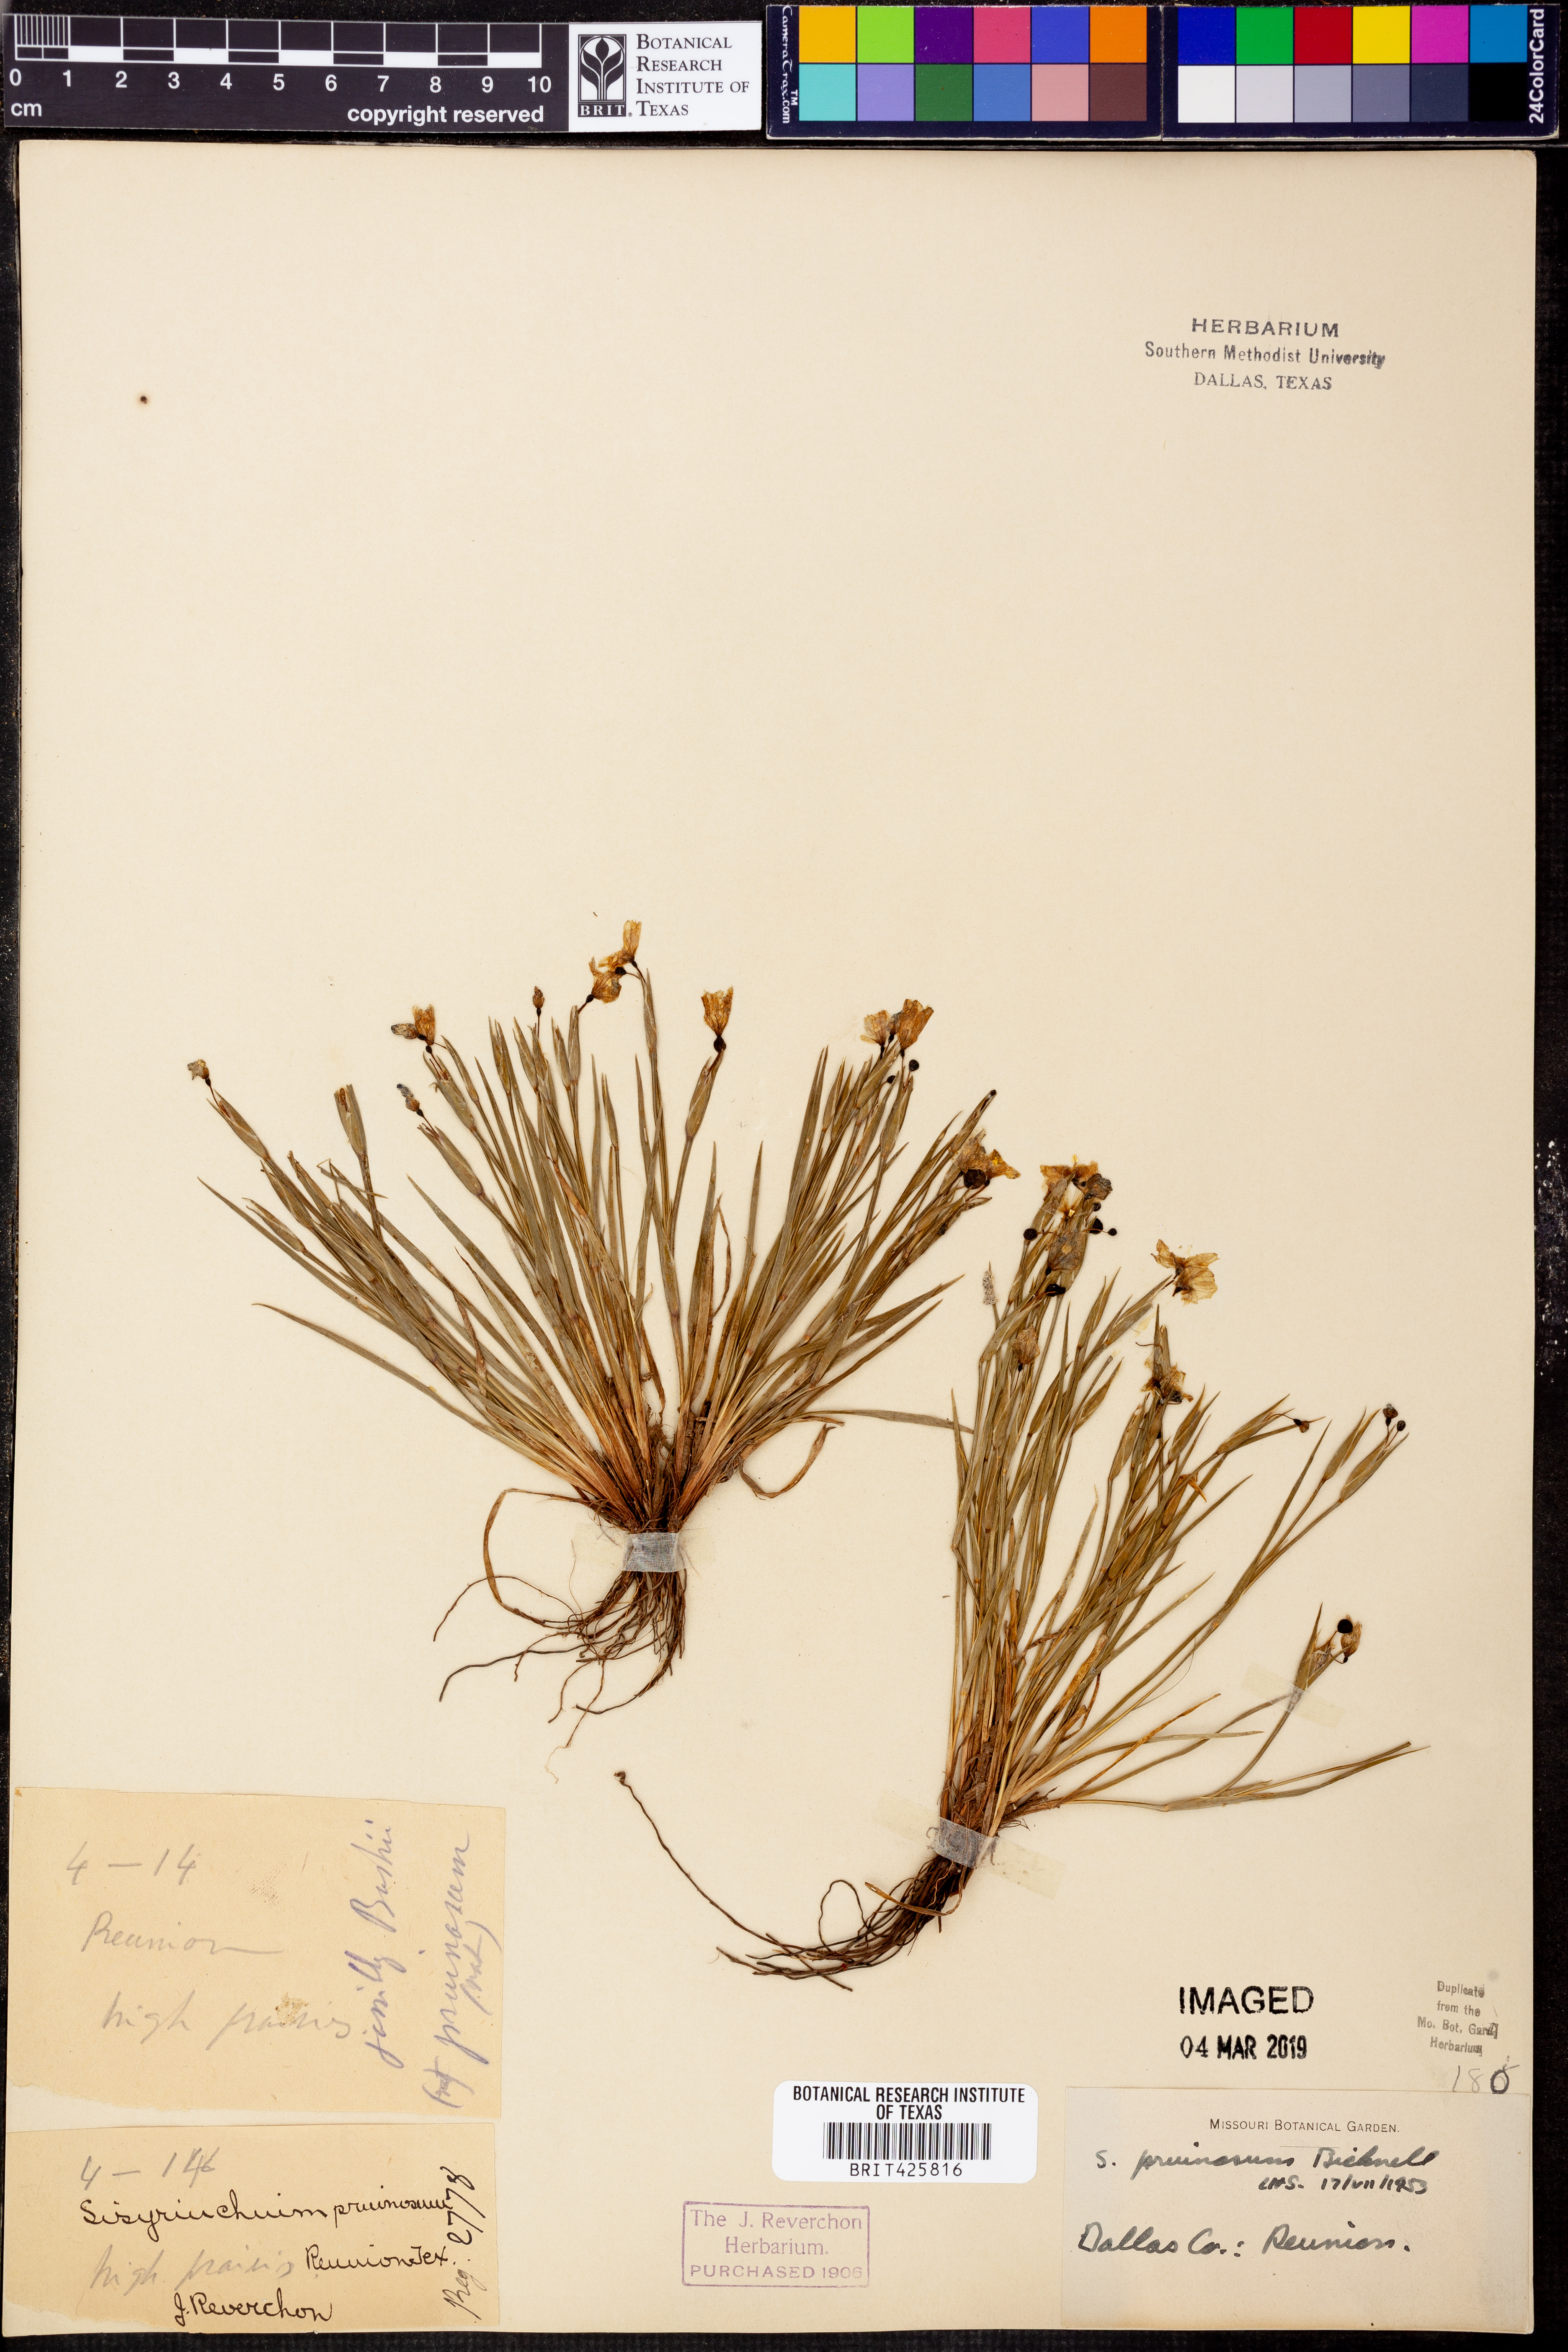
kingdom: Plantae
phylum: Tracheophyta
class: Liliopsida
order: Asparagales
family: Iridaceae
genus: Sisyrinchium
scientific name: Sisyrinchium pruinosum
